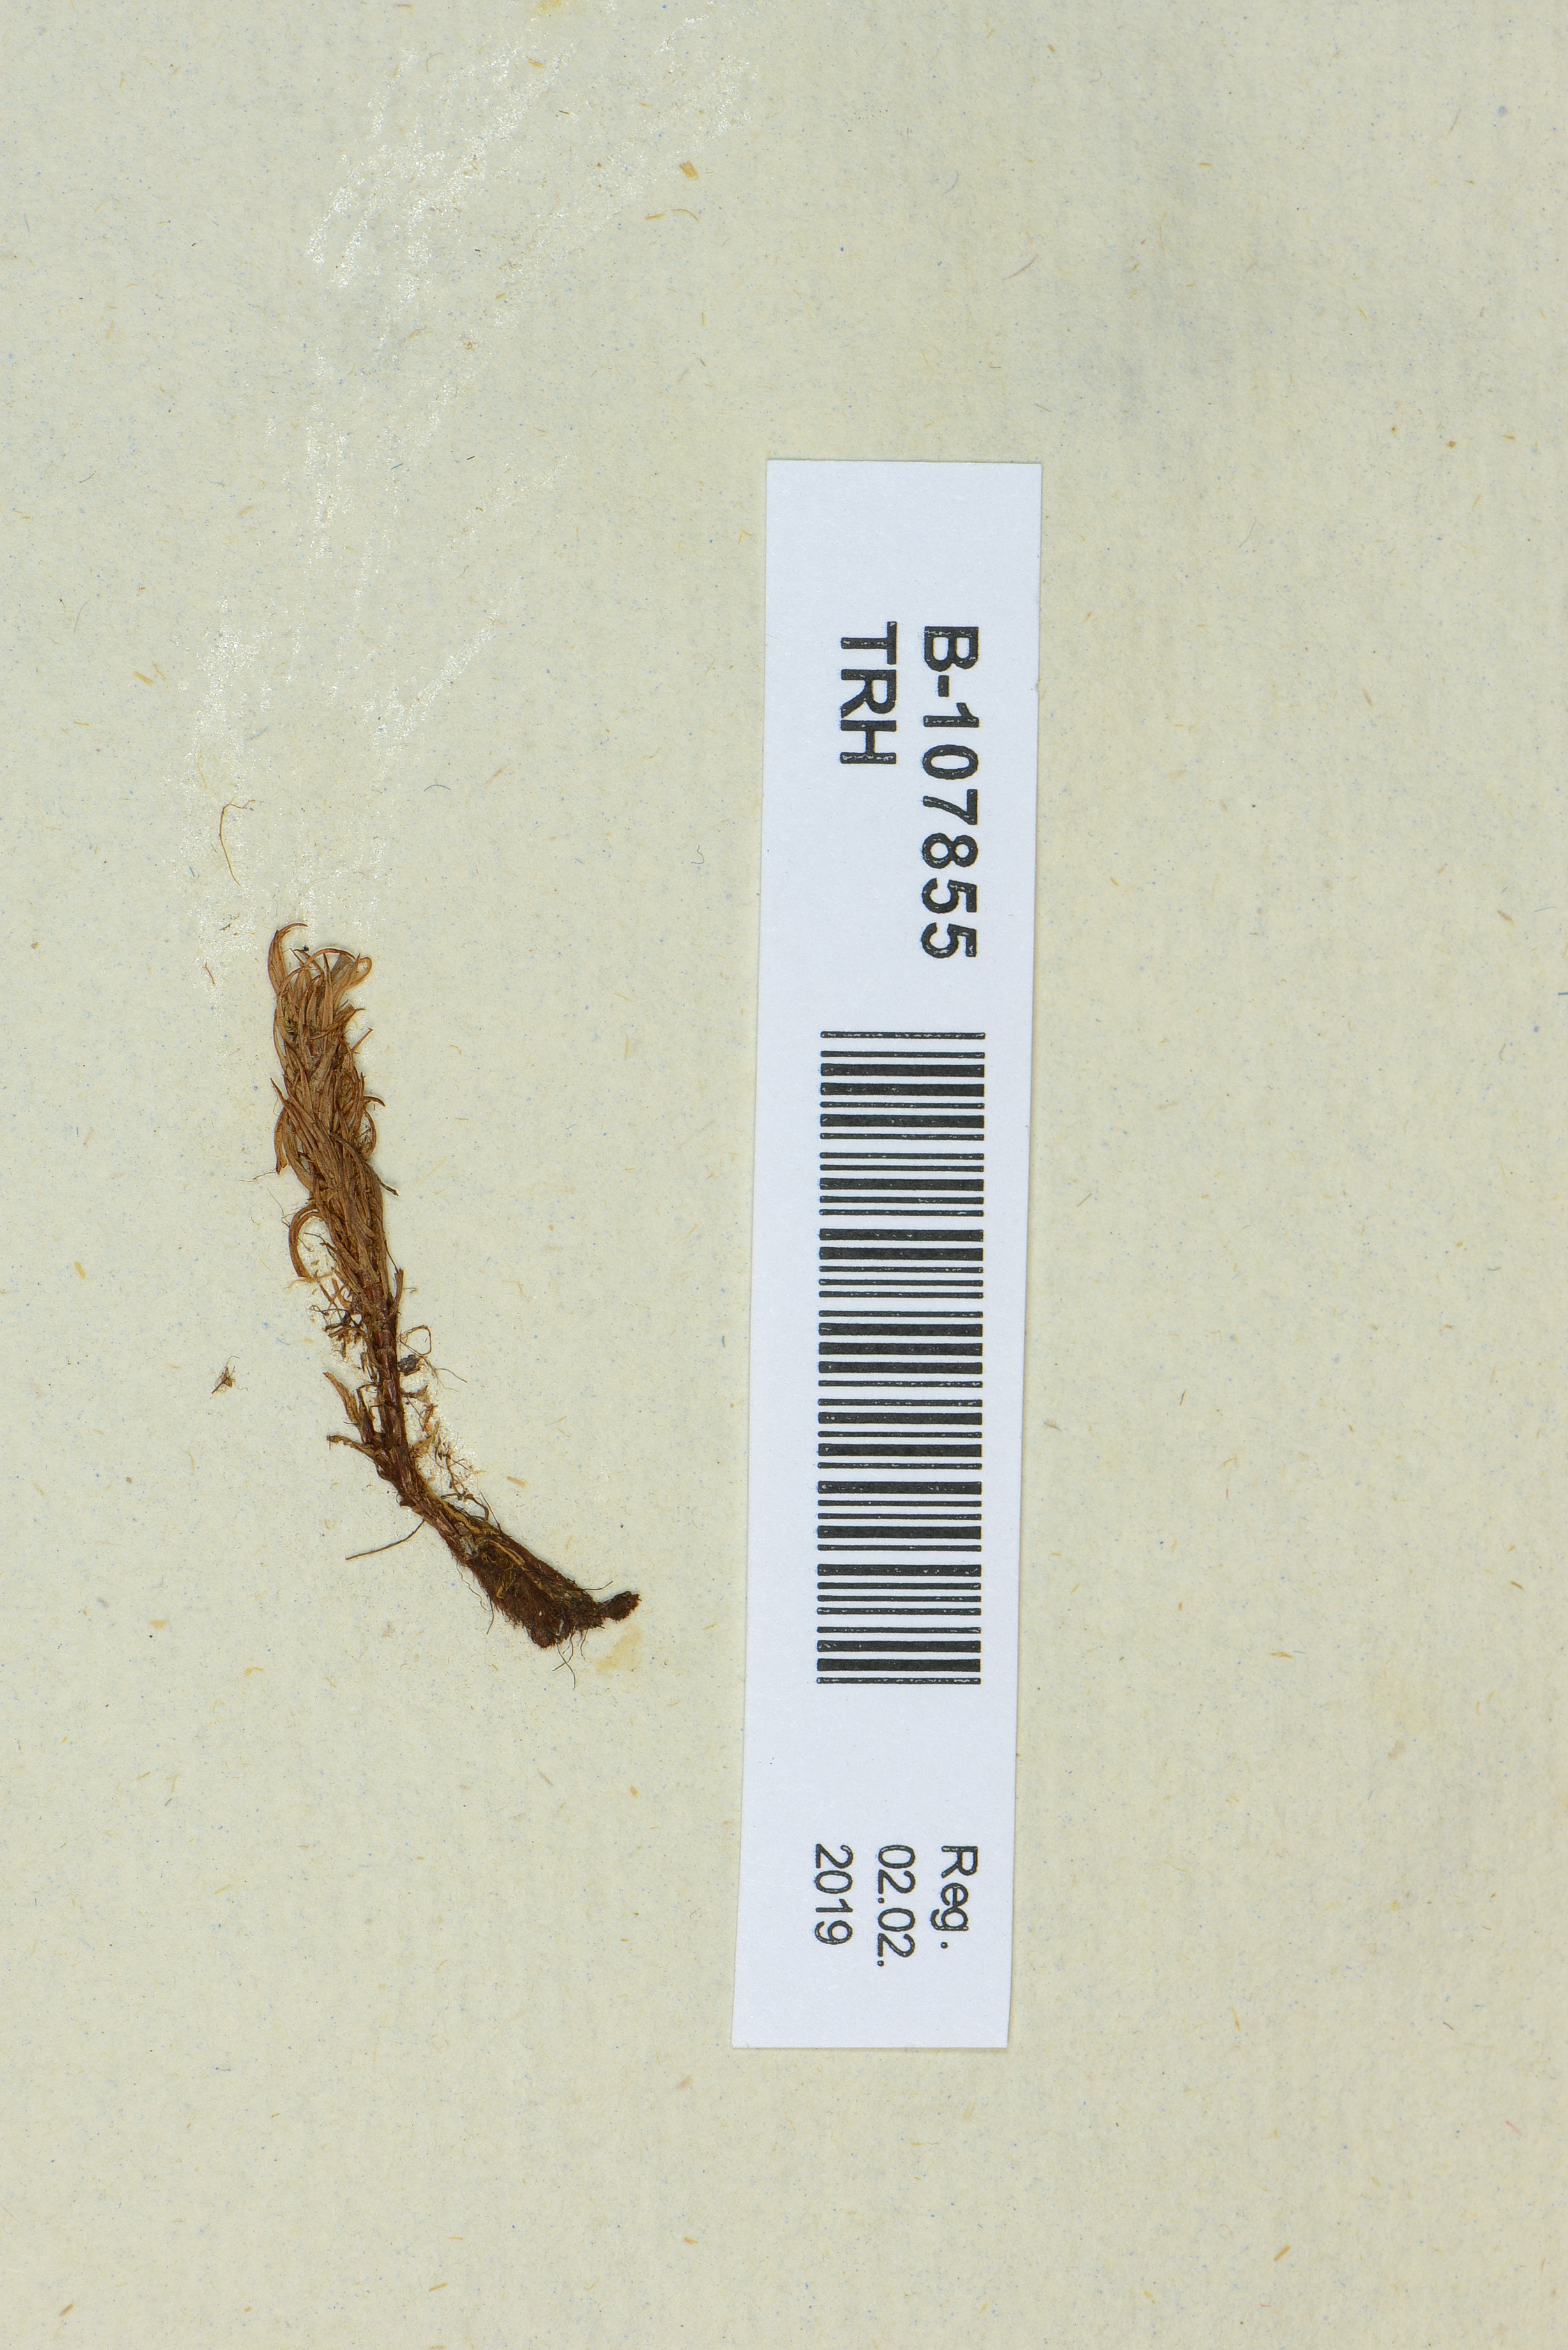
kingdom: Plantae
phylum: Bryophyta
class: Polytrichopsida
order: Polytrichales
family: Polytrichaceae
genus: Pogonatum
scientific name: Pogonatum urnigerum
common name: Urn hair moss
